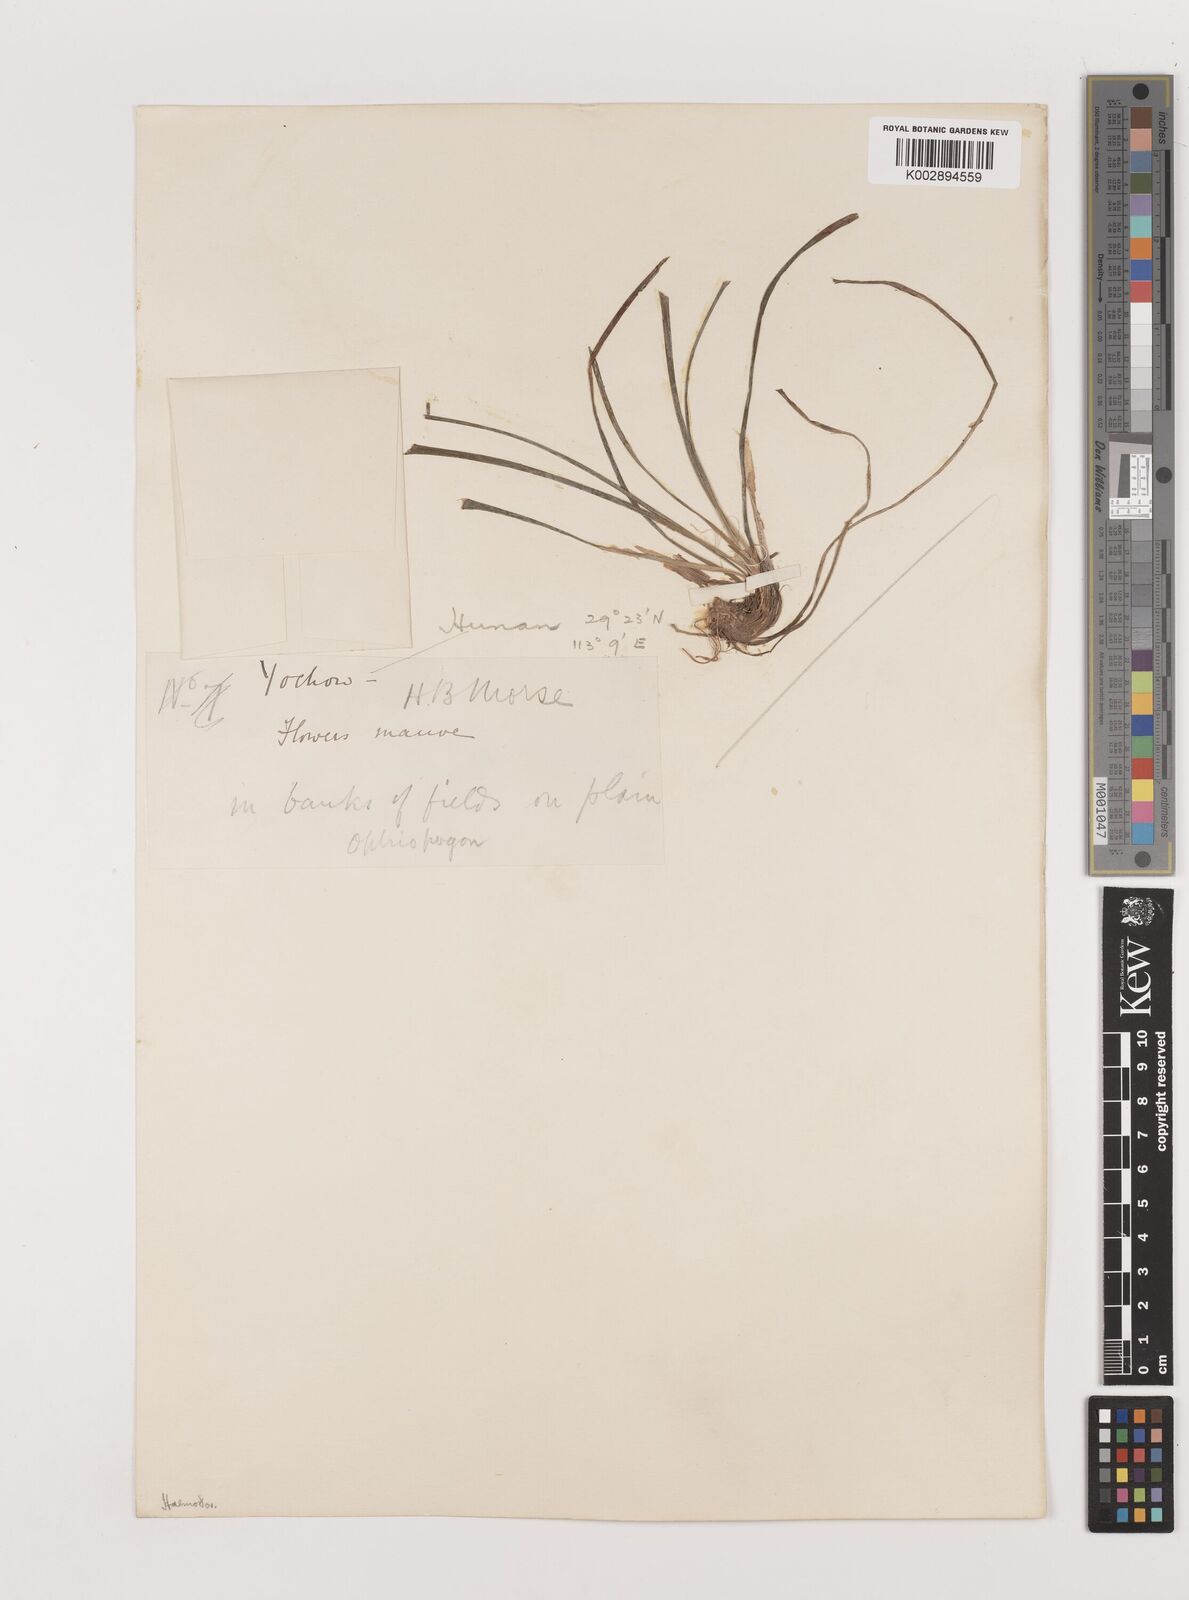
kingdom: Plantae
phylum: Tracheophyta
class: Liliopsida
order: Asparagales
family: Asparagaceae
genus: Liriope
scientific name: Liriope spicata
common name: Creeping liriope
